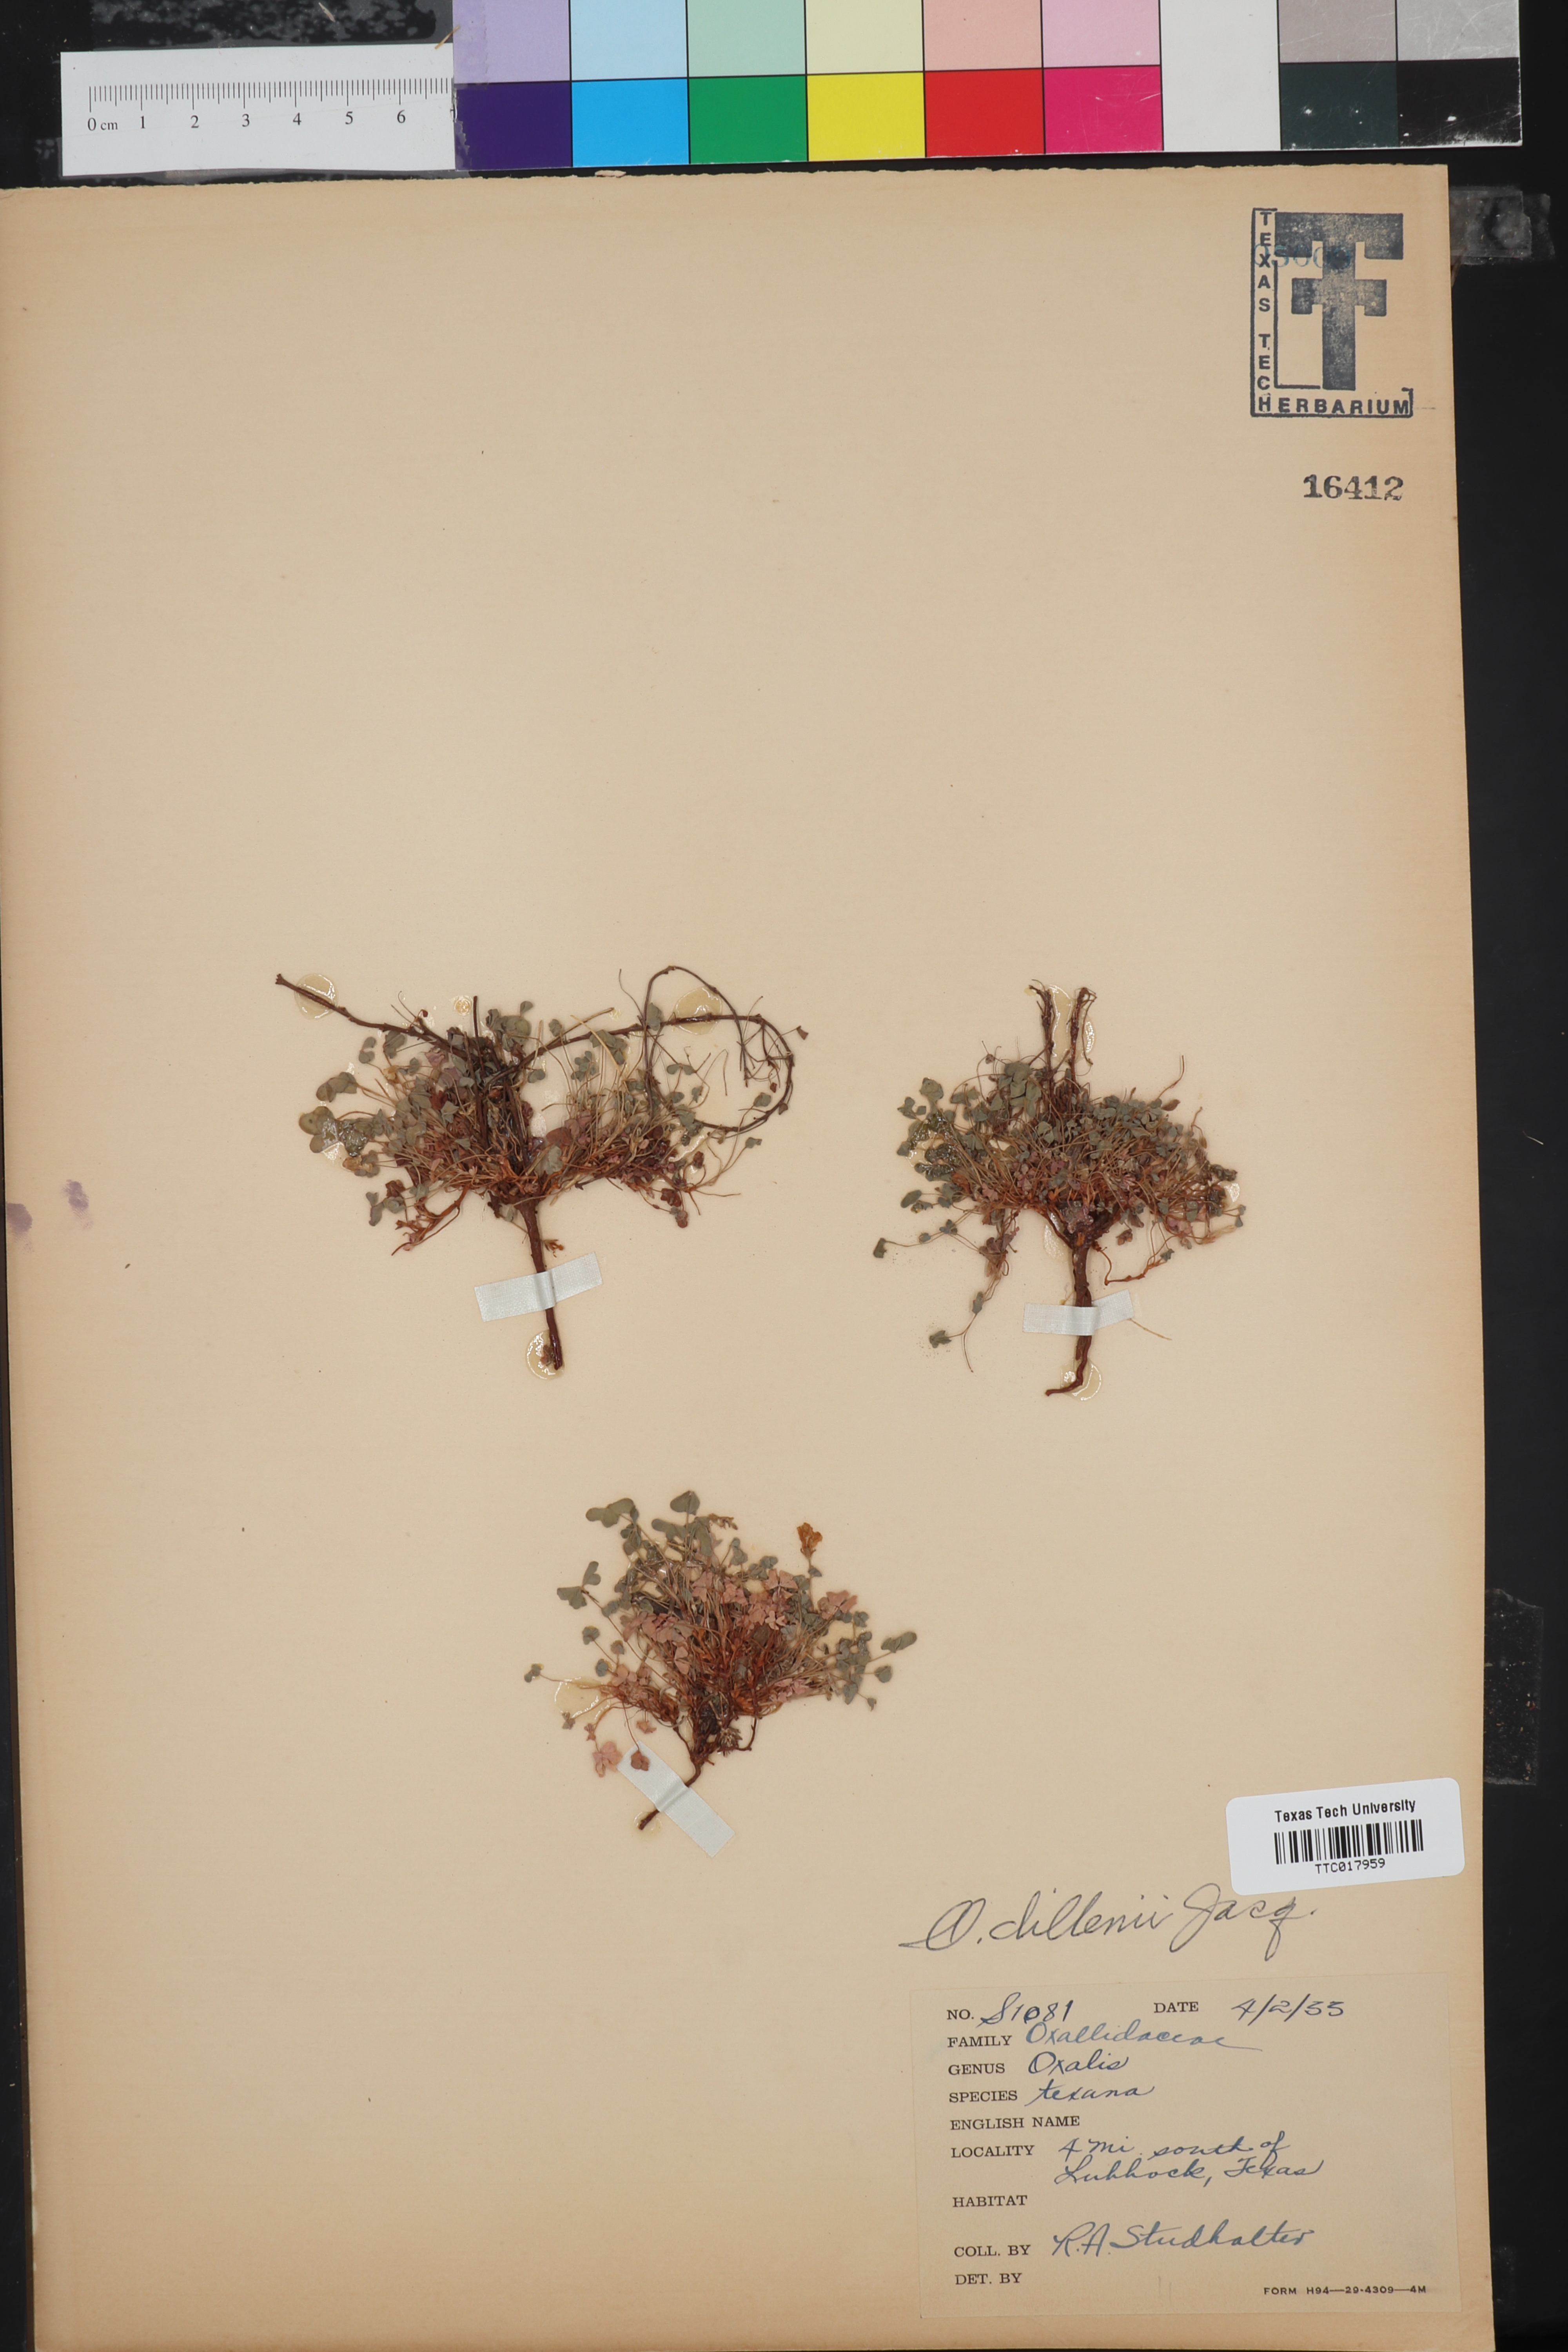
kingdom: Plantae
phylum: Tracheophyta
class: Magnoliopsida
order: Oxalidales
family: Oxalidaceae
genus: Oxalis
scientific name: Oxalis dillenii
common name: Sussex yellow-sorrel
